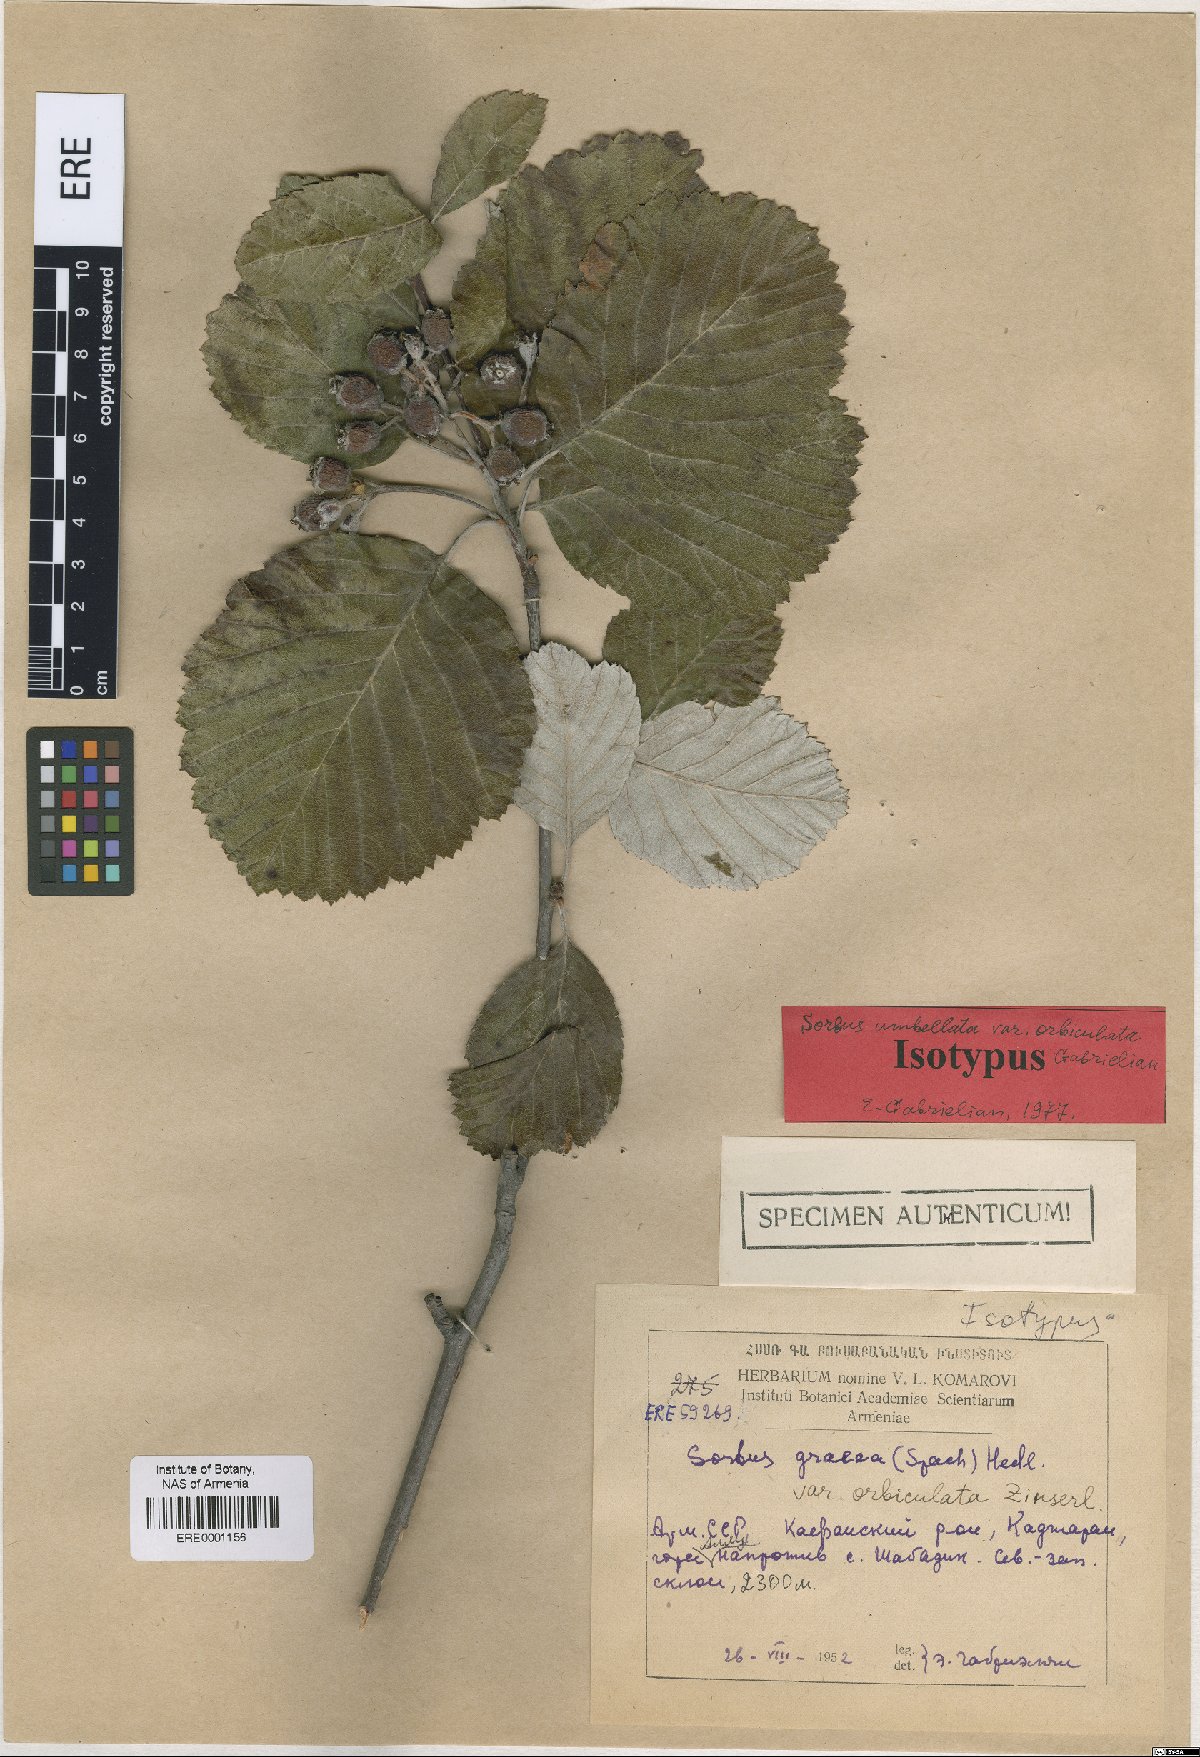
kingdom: Plantae
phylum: Tracheophyta
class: Magnoliopsida
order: Rosales
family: Rosaceae
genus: Aria
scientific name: Aria umbellata
